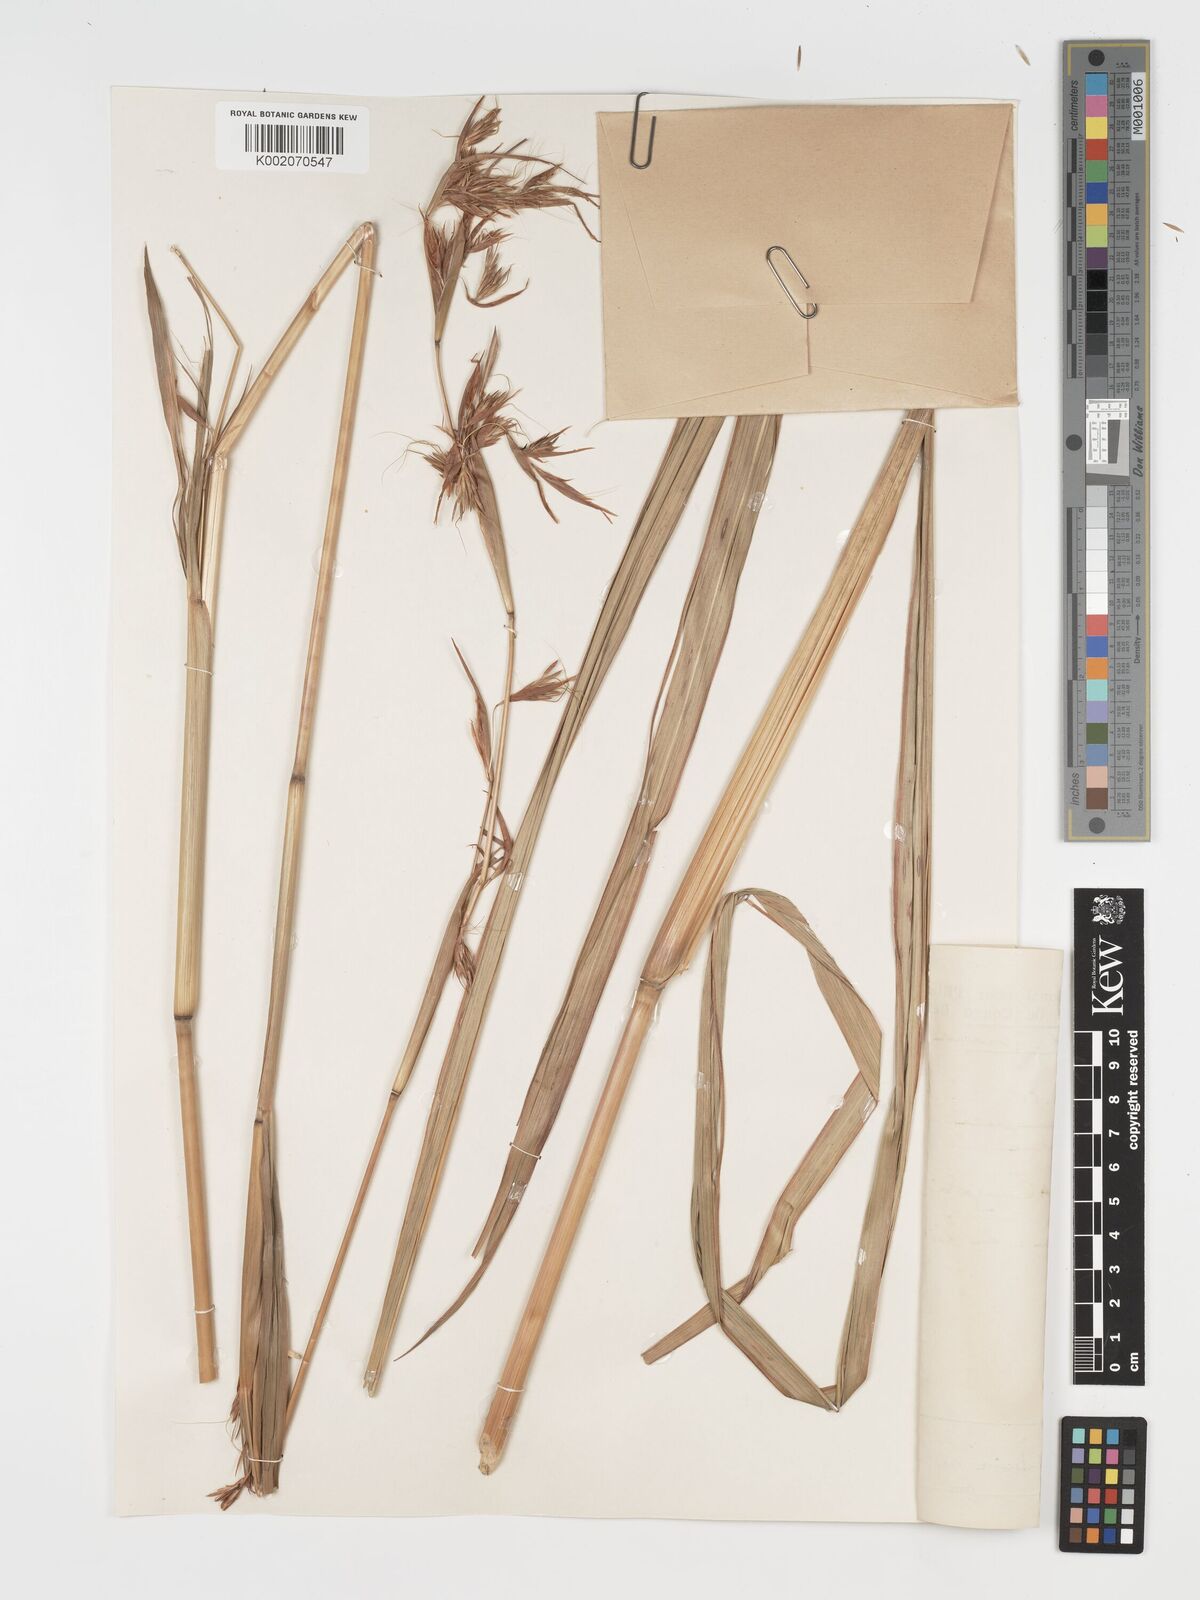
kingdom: Plantae
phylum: Tracheophyta
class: Liliopsida
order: Poales
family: Poaceae
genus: Hyparrhenia
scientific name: Hyparrhenia diplandra
